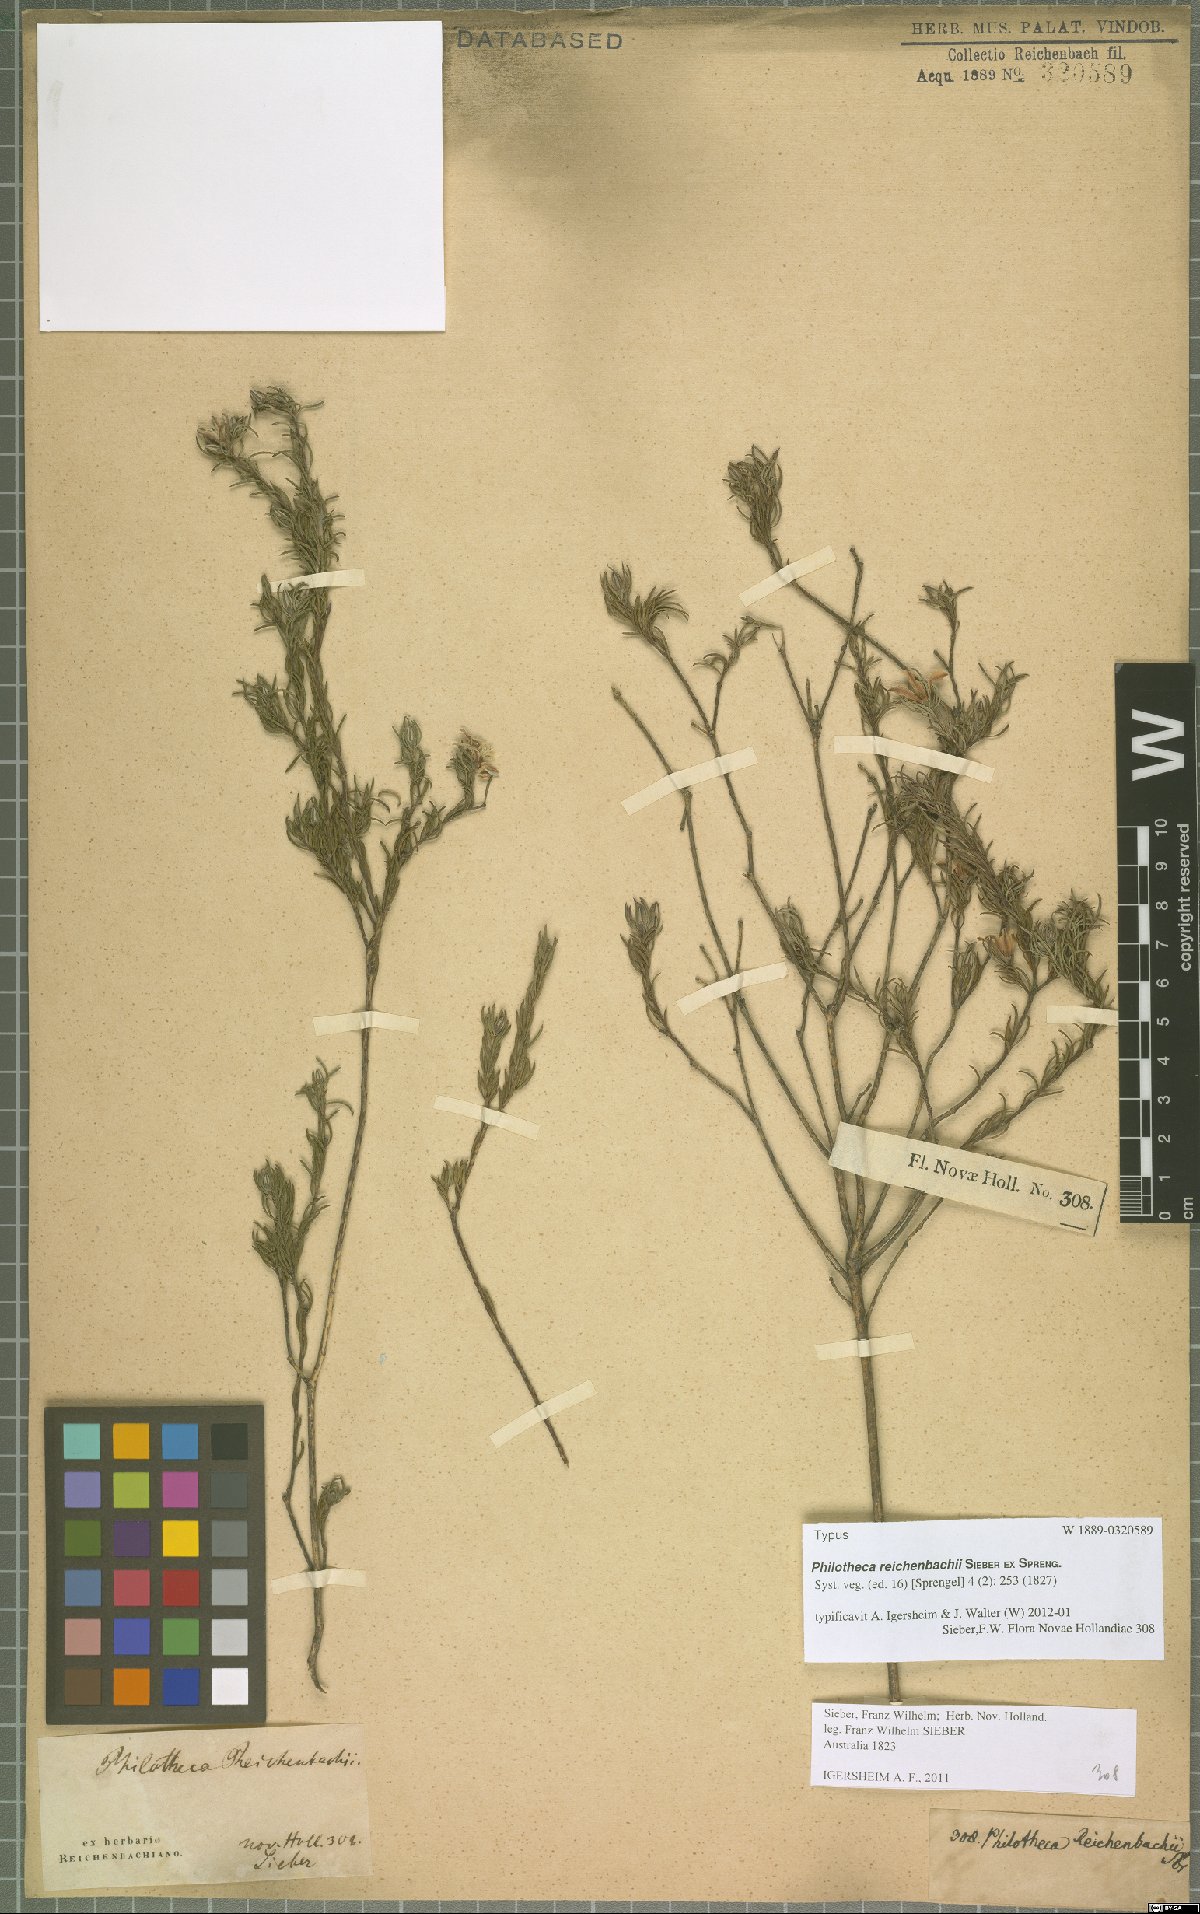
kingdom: Plantae
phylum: Tracheophyta
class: Magnoliopsida
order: Sapindales
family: Rutaceae
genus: Philotheca
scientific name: Philotheca reichenbachii
